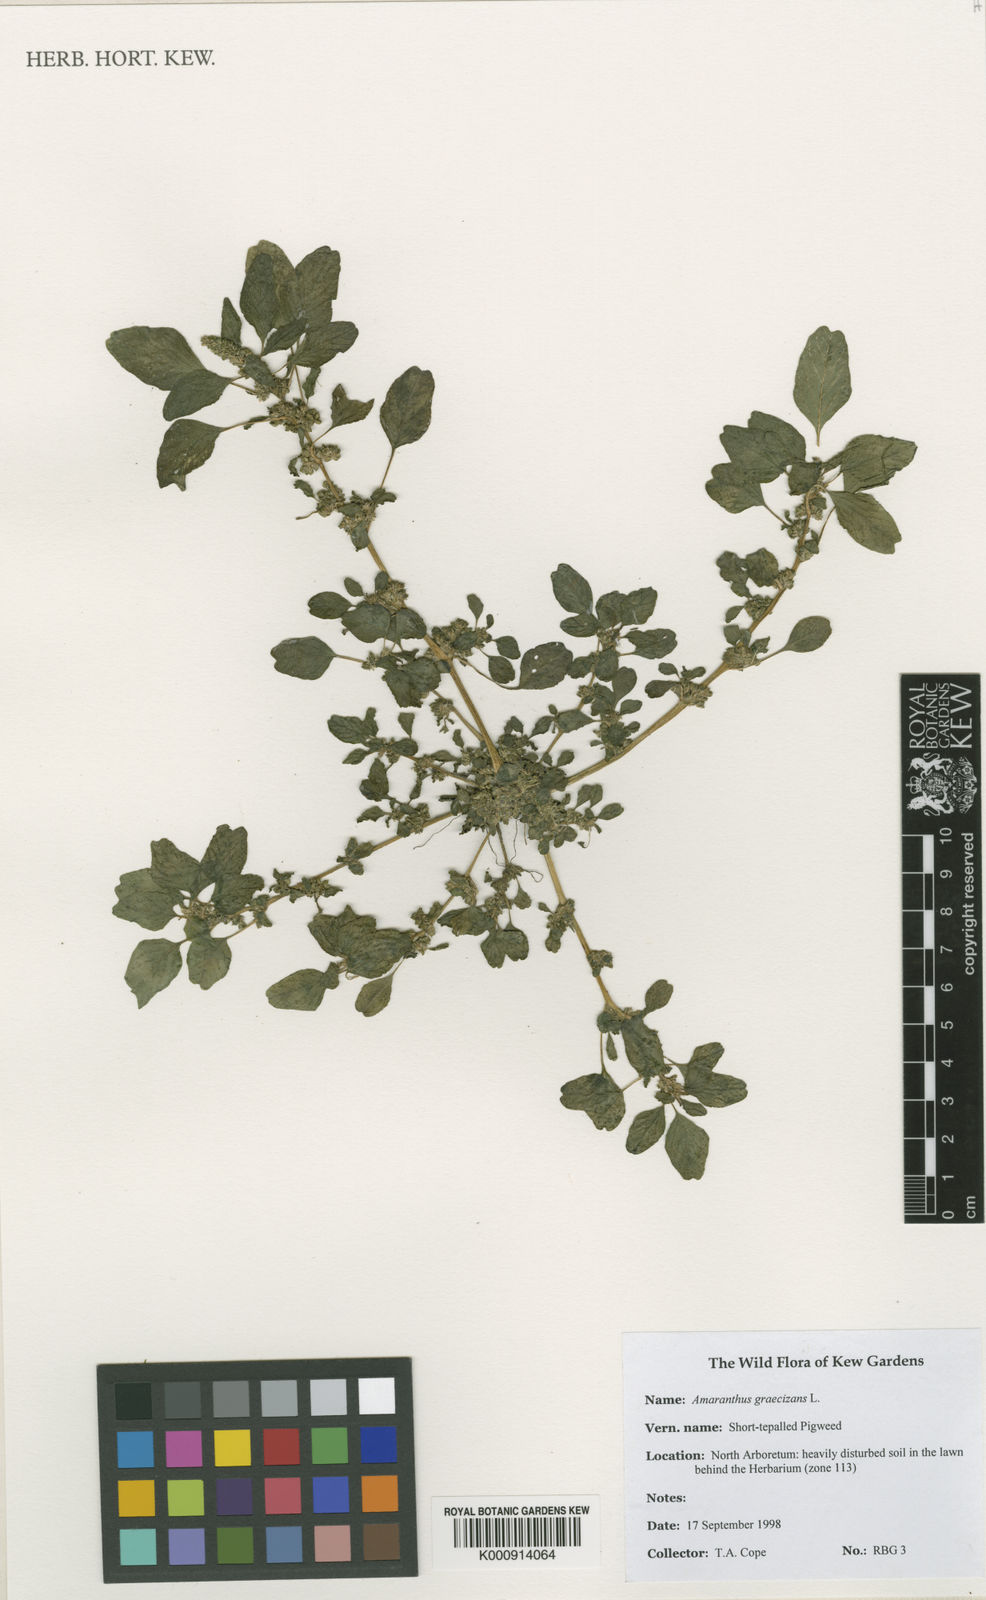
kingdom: Plantae
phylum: Tracheophyta
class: Magnoliopsida
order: Caryophyllales
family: Amaranthaceae
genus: Amaranthus
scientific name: Amaranthus graecizans
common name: Mediterranean amaranth
